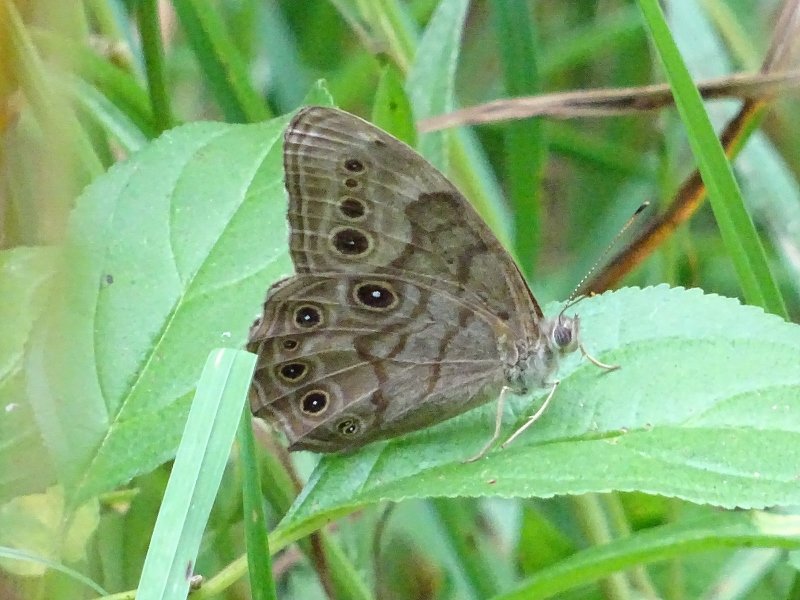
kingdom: Animalia
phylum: Arthropoda
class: Insecta
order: Lepidoptera
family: Nymphalidae
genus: Lethe
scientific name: Lethe anthedon
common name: Northern Pearly-Eye
